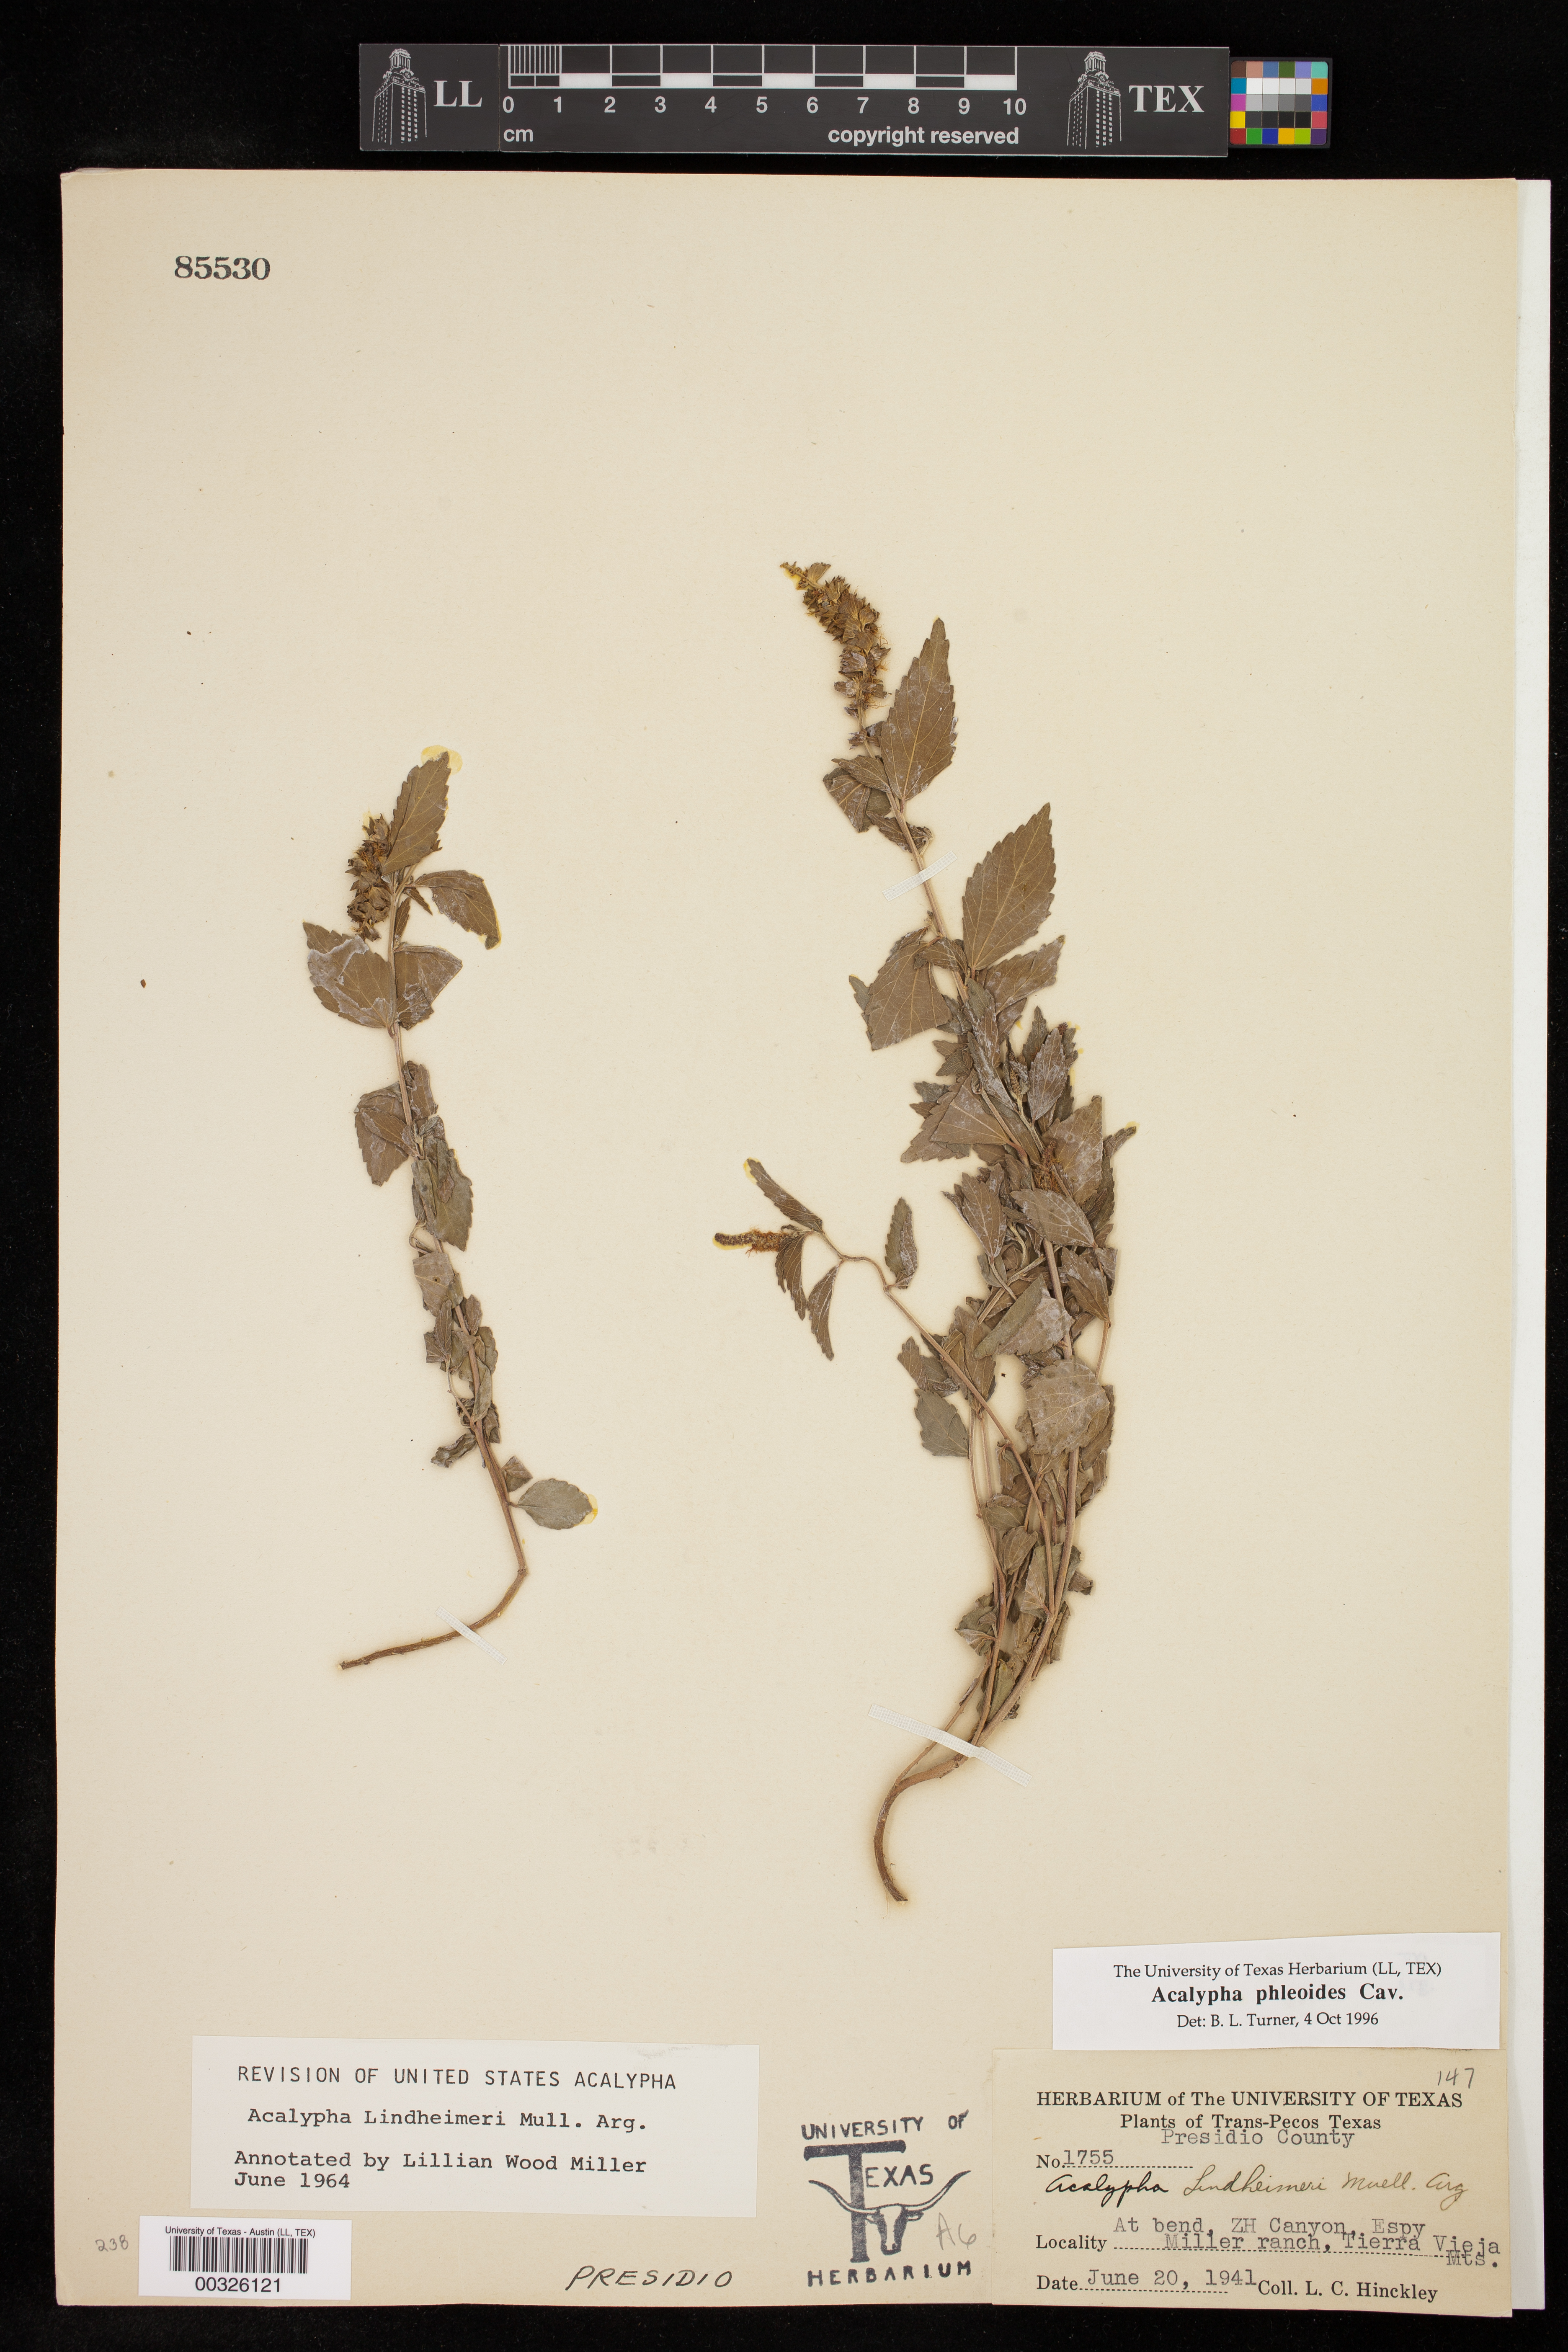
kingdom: Plantae
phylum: Tracheophyta
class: Magnoliopsida
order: Malpighiales
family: Euphorbiaceae
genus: Acalypha
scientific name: Acalypha phleoides
